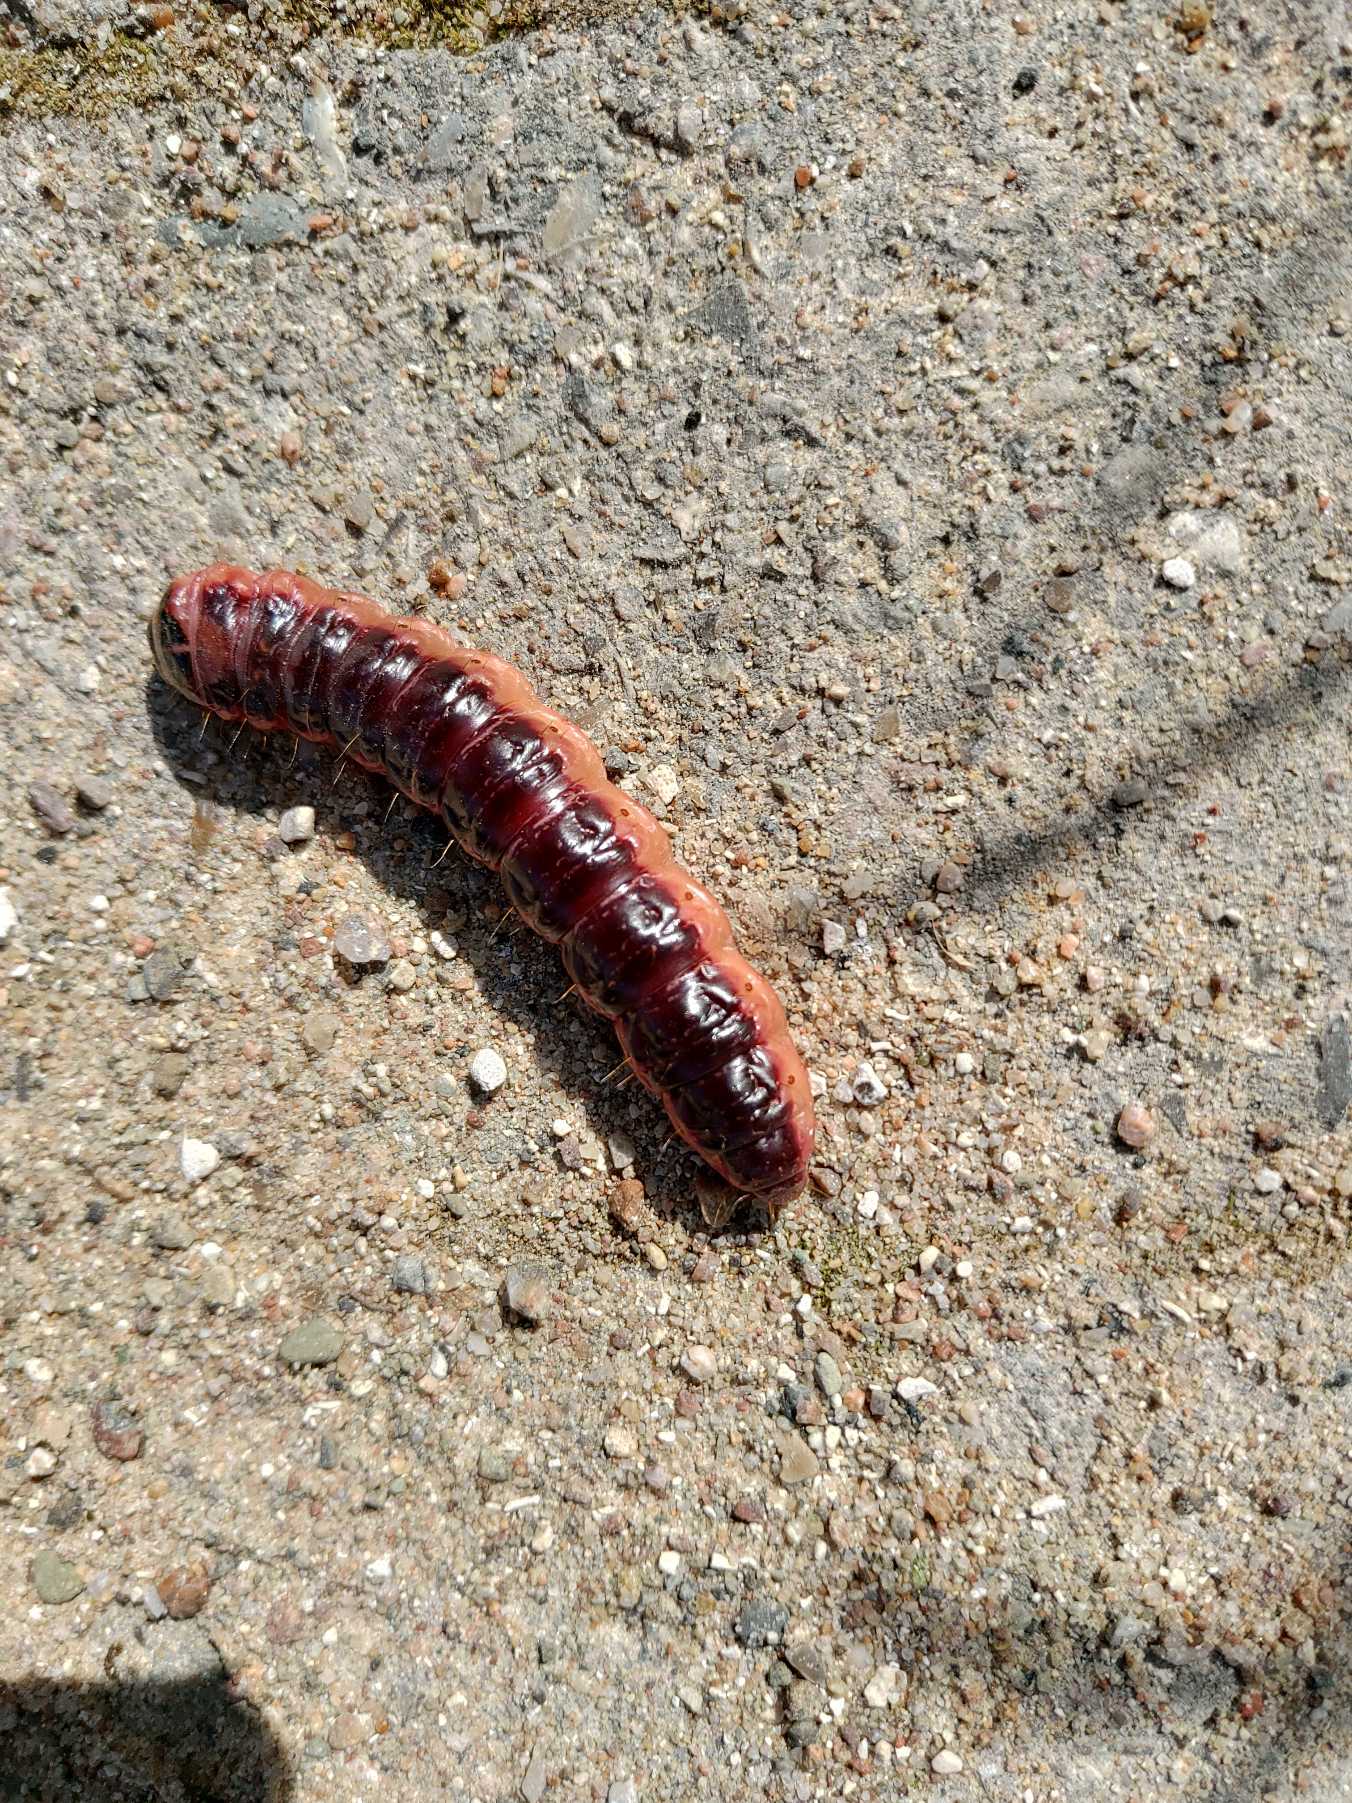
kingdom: Animalia
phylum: Arthropoda
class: Insecta
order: Lepidoptera
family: Cossidae
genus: Cossus
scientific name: Cossus cossus
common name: Pileborer
